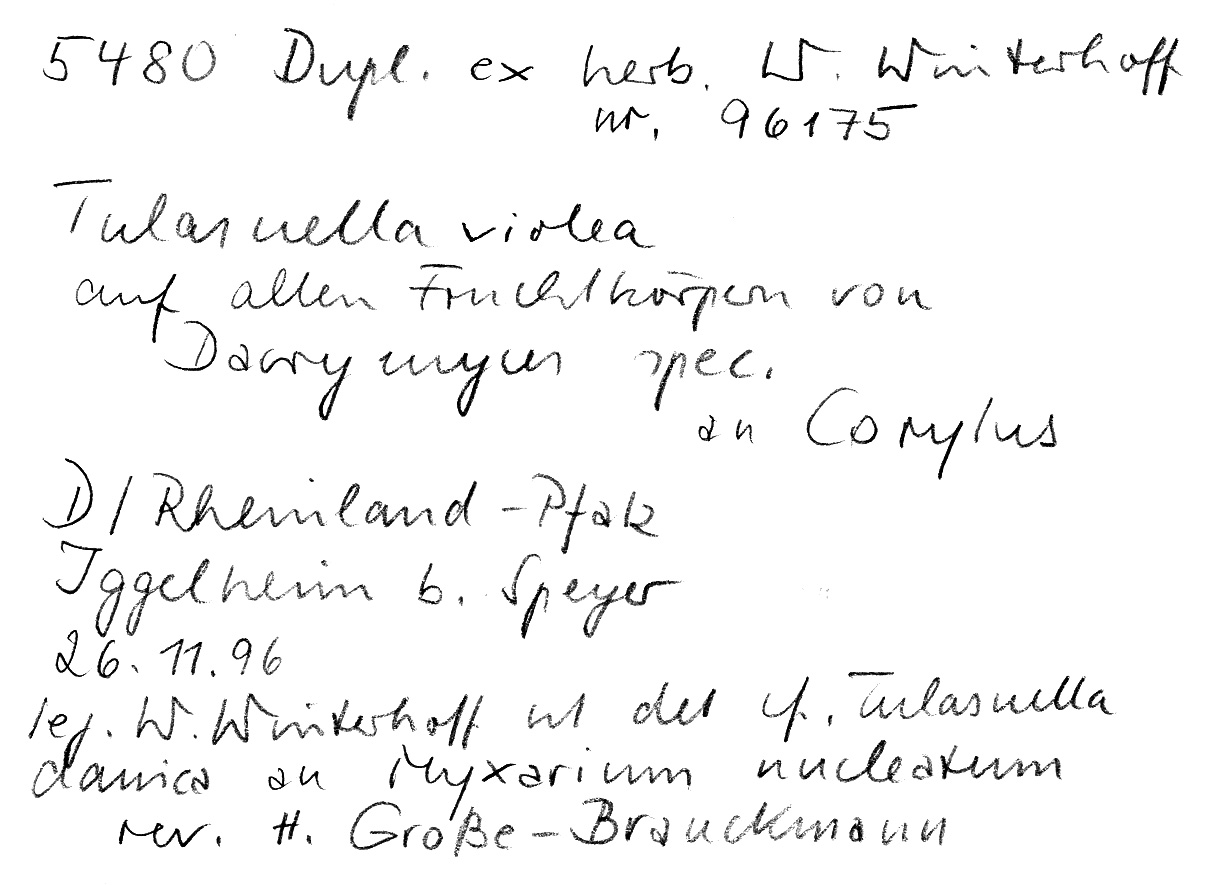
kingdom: Fungi
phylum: Basidiomycota
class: Dacrymycetes
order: Dacrymycetales
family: Dacrymycetaceae
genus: Dacrymyces
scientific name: Dacrymyces
